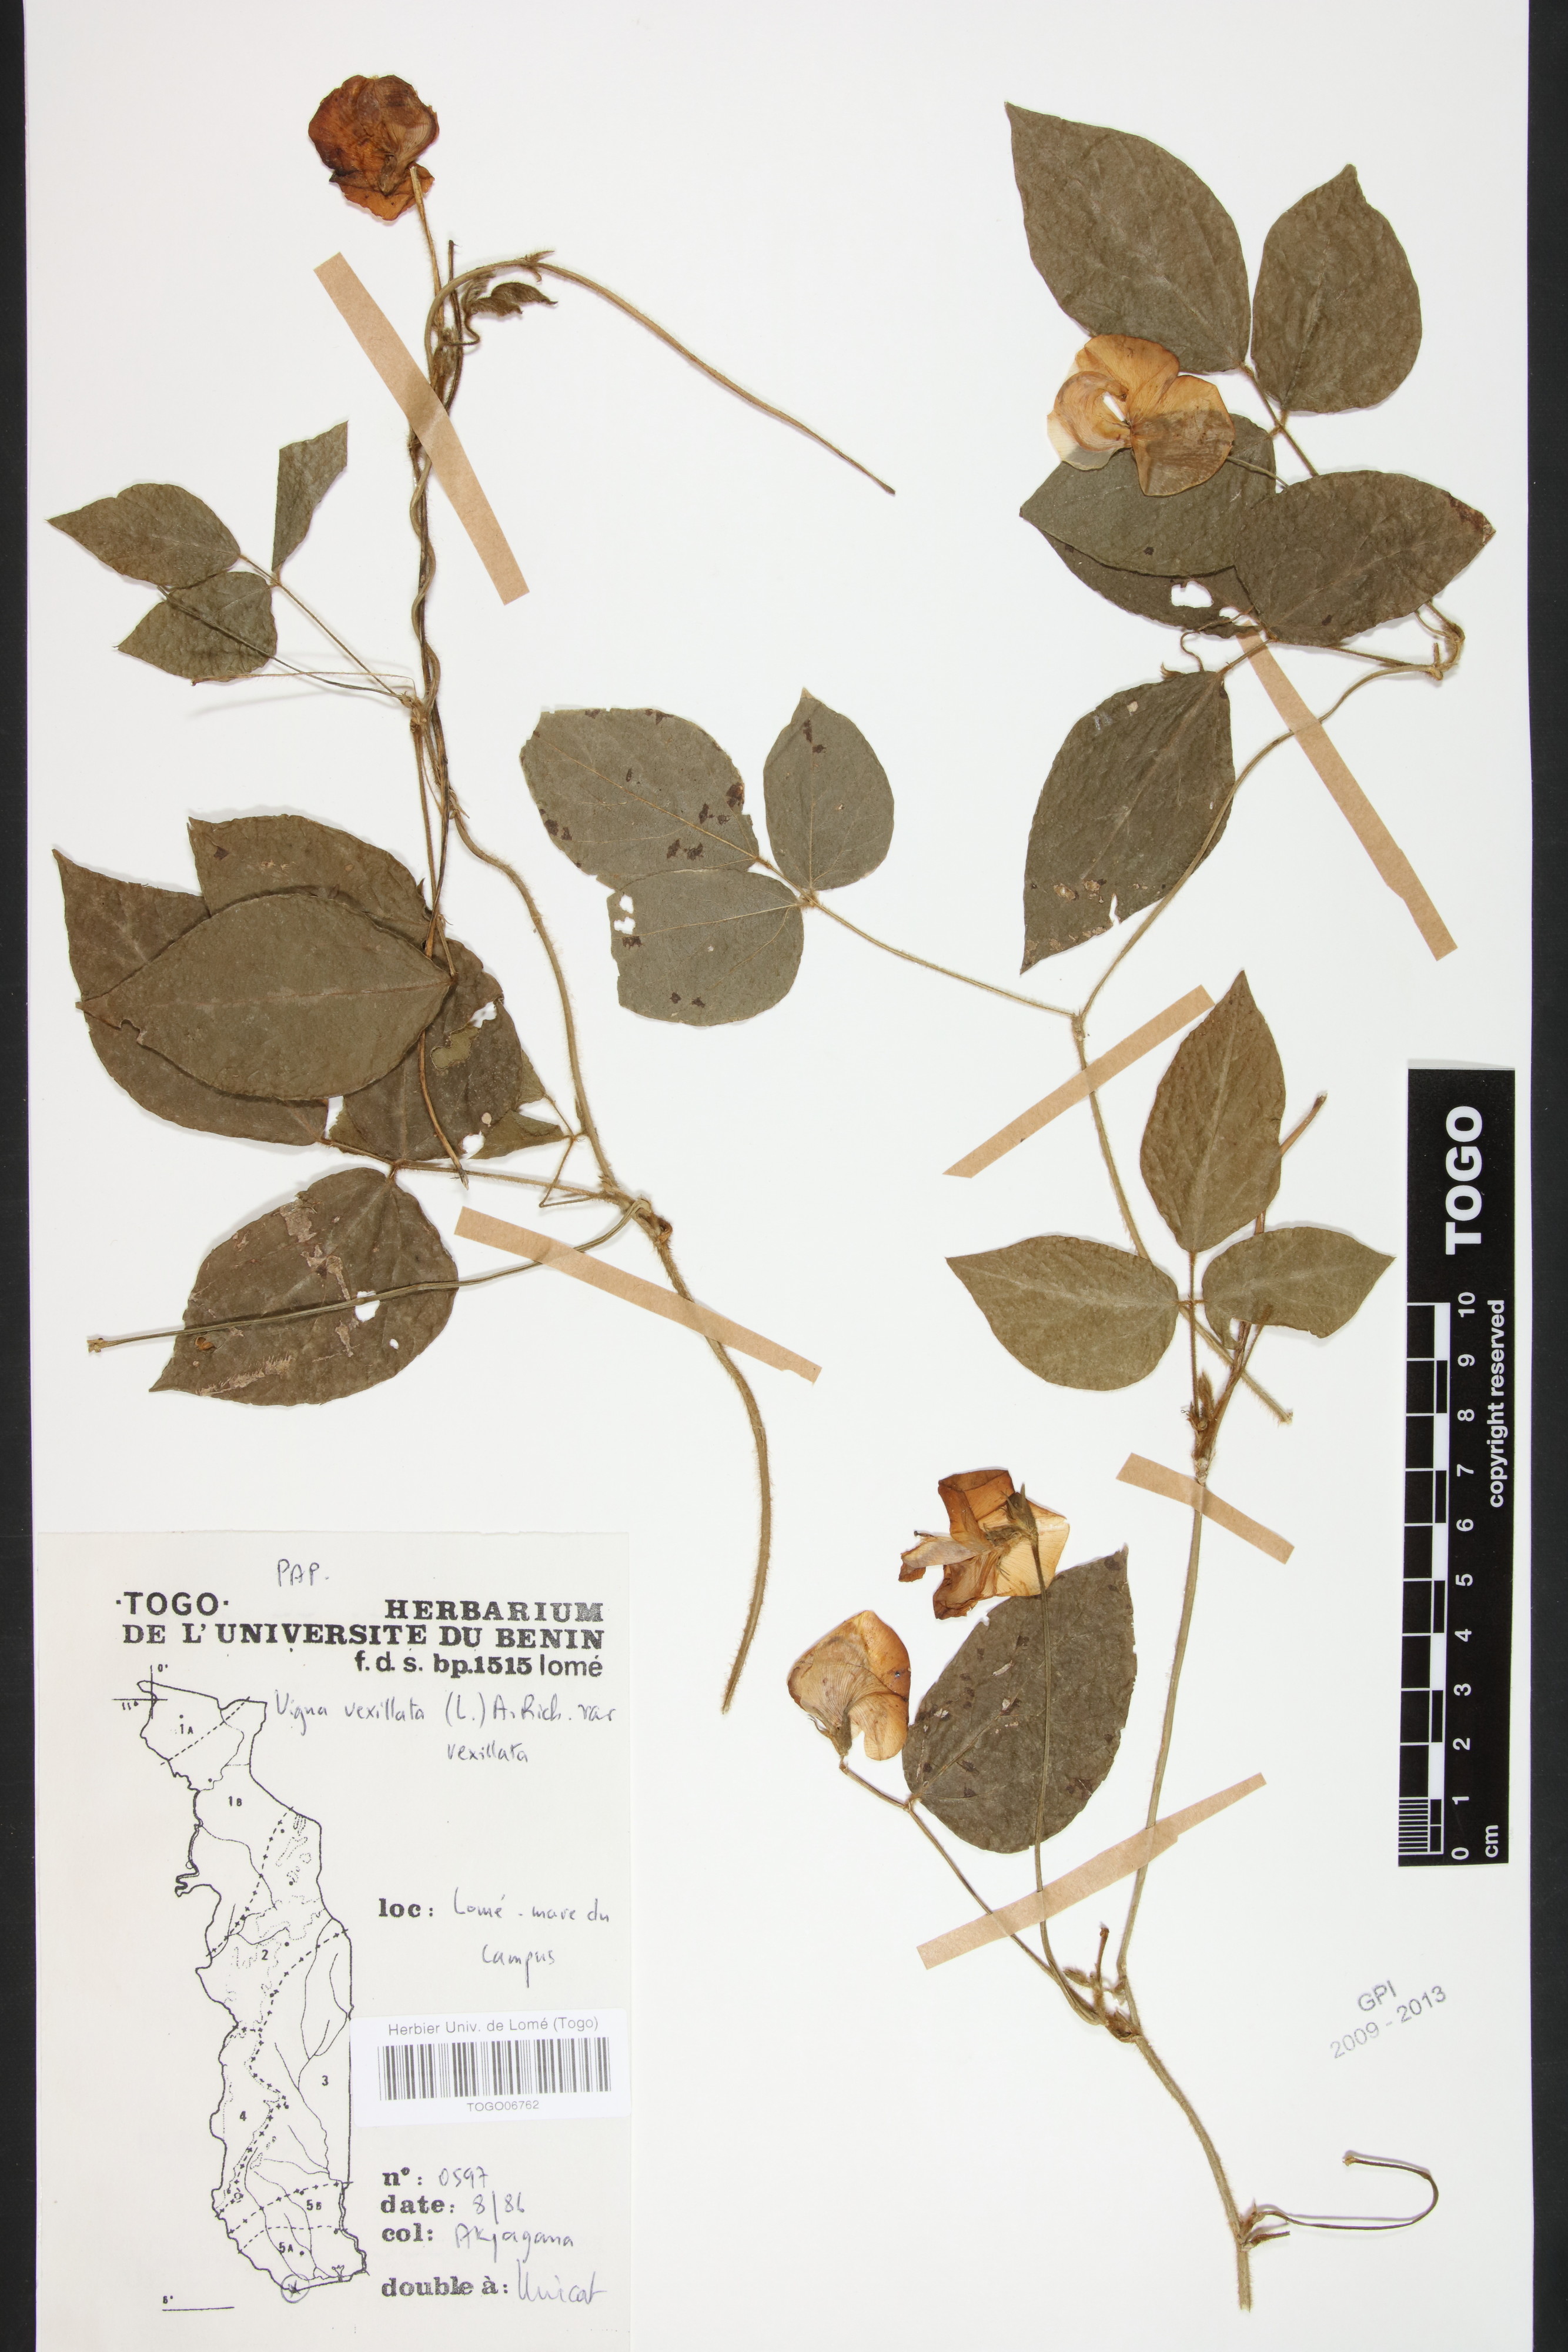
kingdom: Plantae
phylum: Tracheophyta
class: Magnoliopsida
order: Fabales
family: Fabaceae
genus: Vigna
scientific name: Vigna vexillata
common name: Zombi pea
